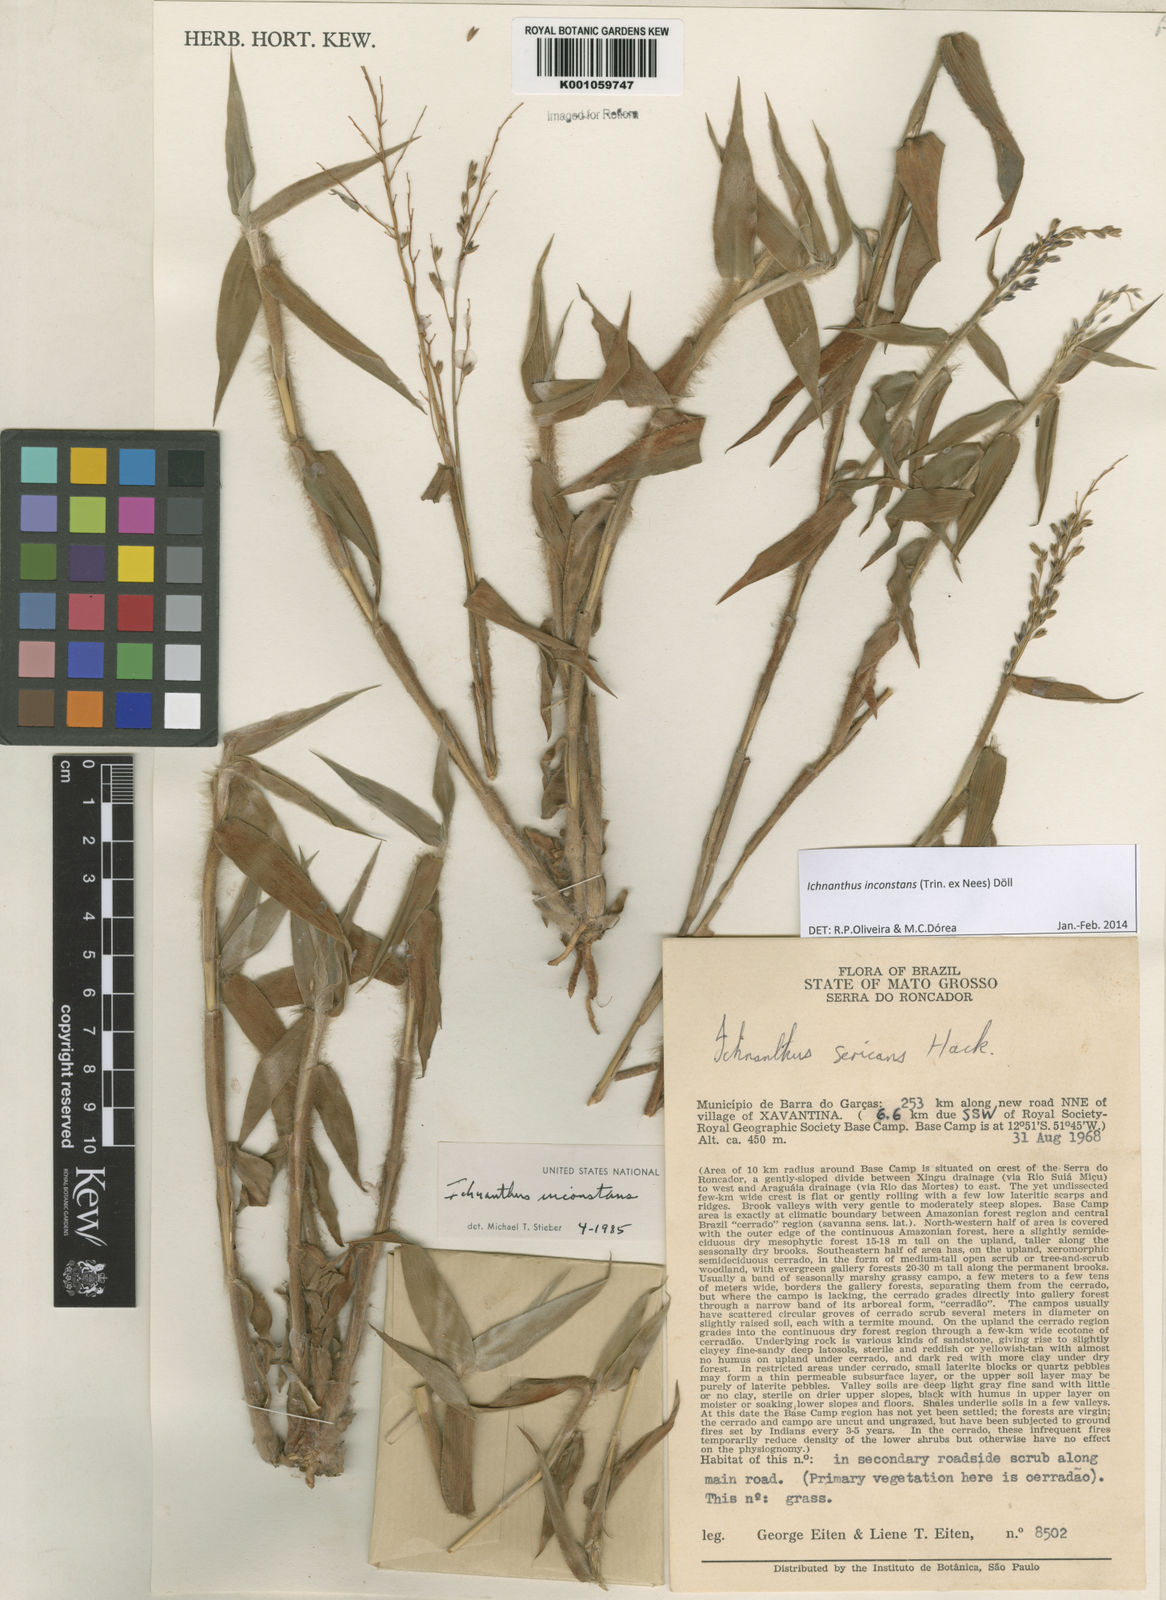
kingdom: Plantae
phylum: Tracheophyta
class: Liliopsida
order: Poales
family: Poaceae
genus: Ichnanthus
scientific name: Ichnanthus
